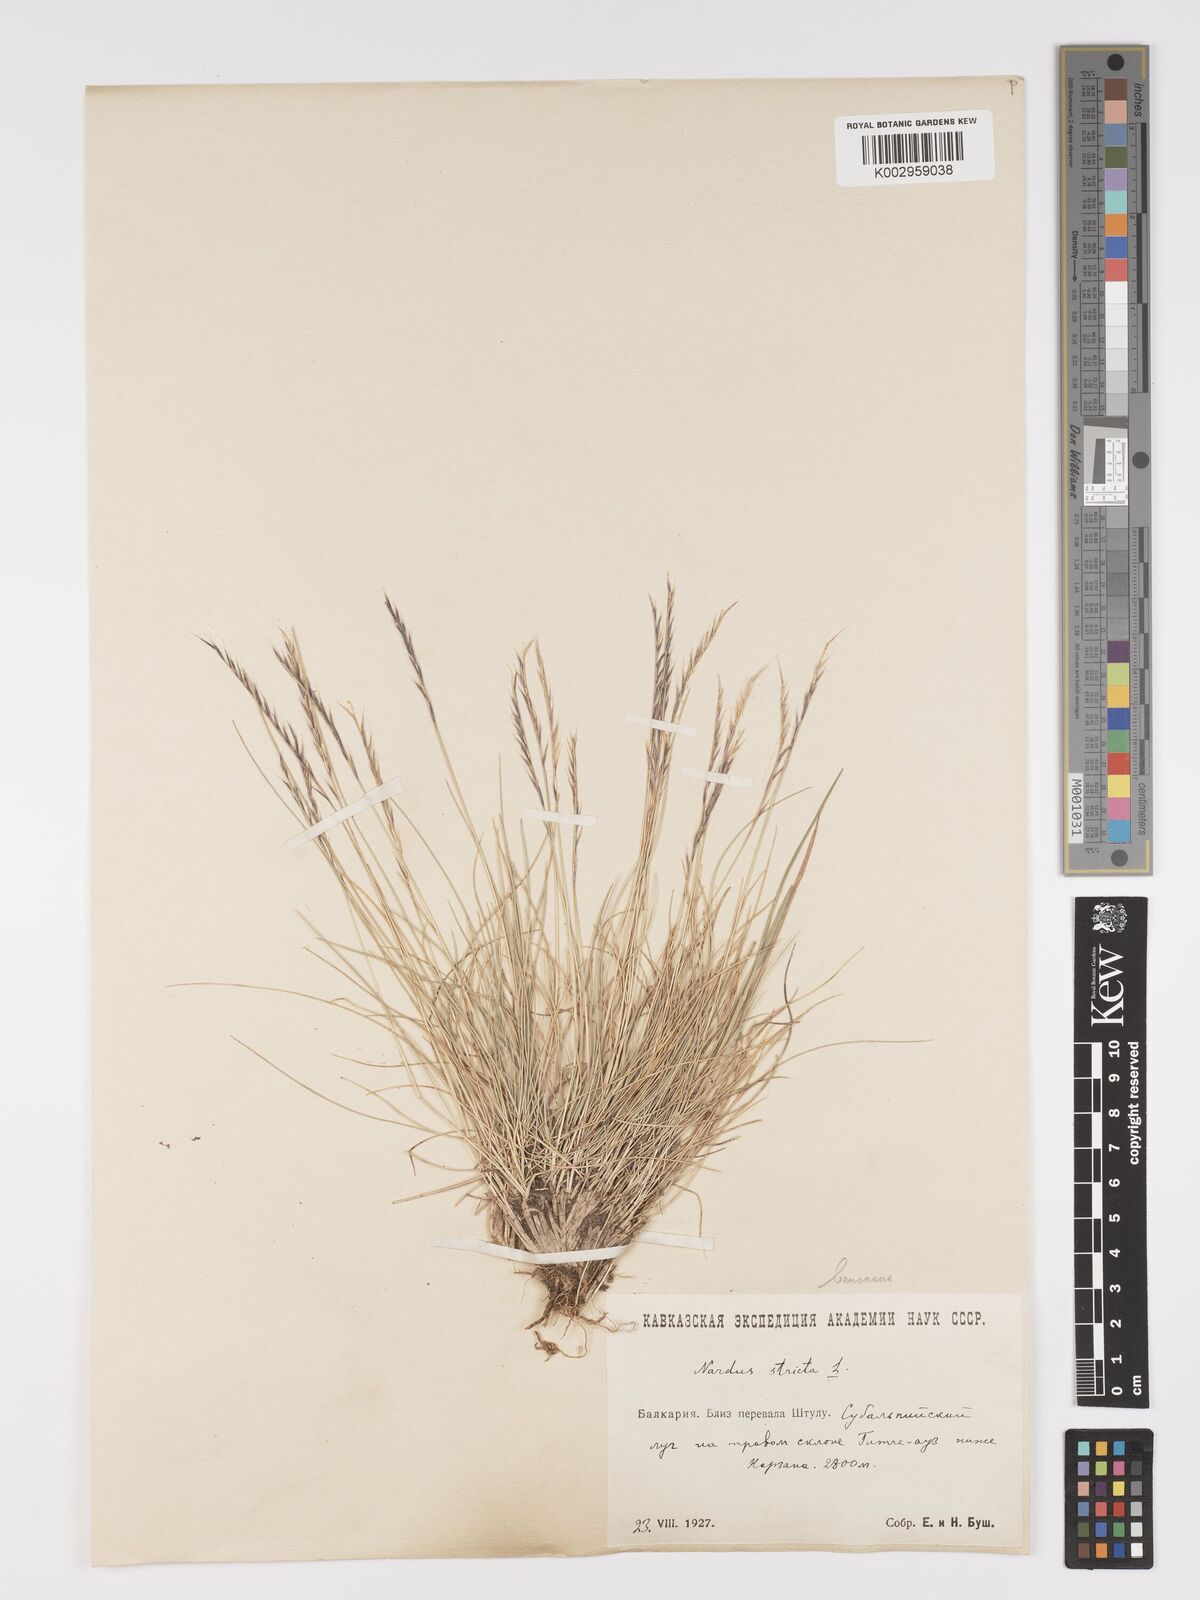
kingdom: Plantae
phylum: Tracheophyta
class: Liliopsida
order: Poales
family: Poaceae
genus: Nardus
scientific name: Nardus stricta
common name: Mat-grass
